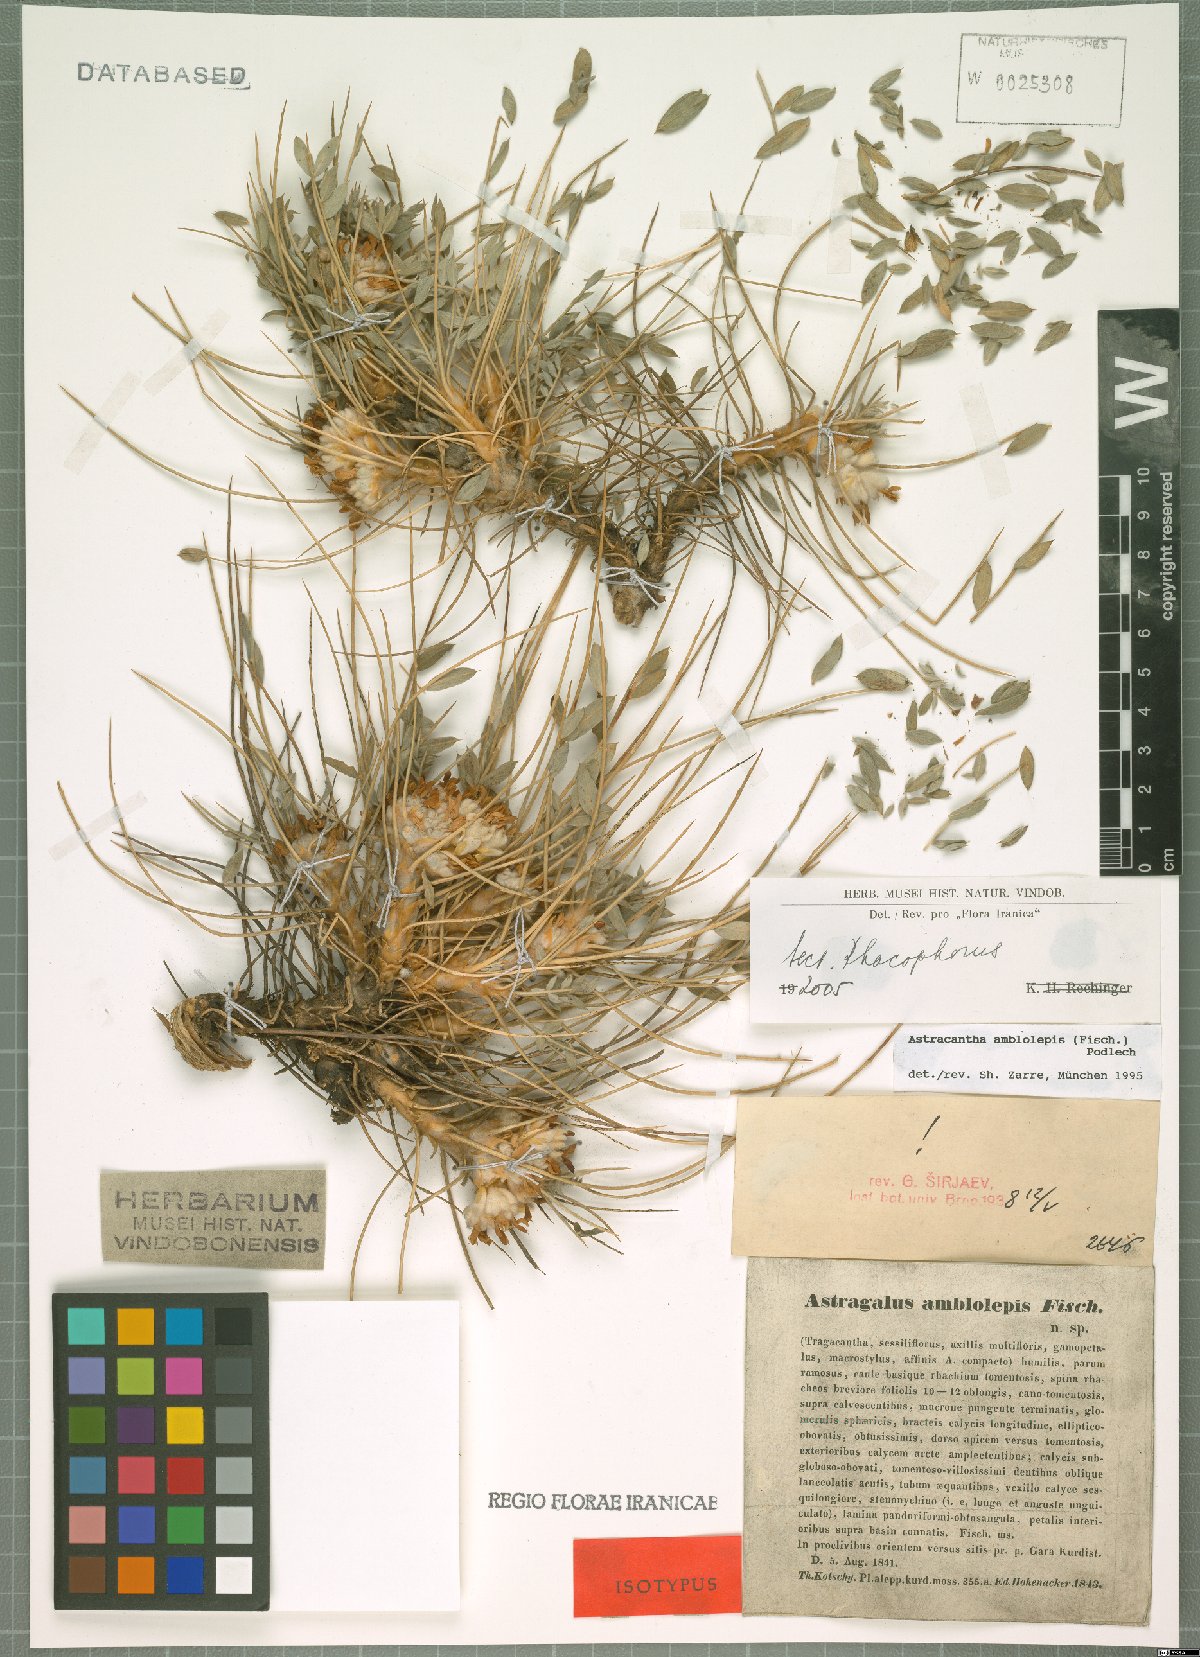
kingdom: Plantae
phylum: Tracheophyta
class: Magnoliopsida
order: Fabales
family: Fabaceae
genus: Astragalus
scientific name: Astragalus amblolepis
